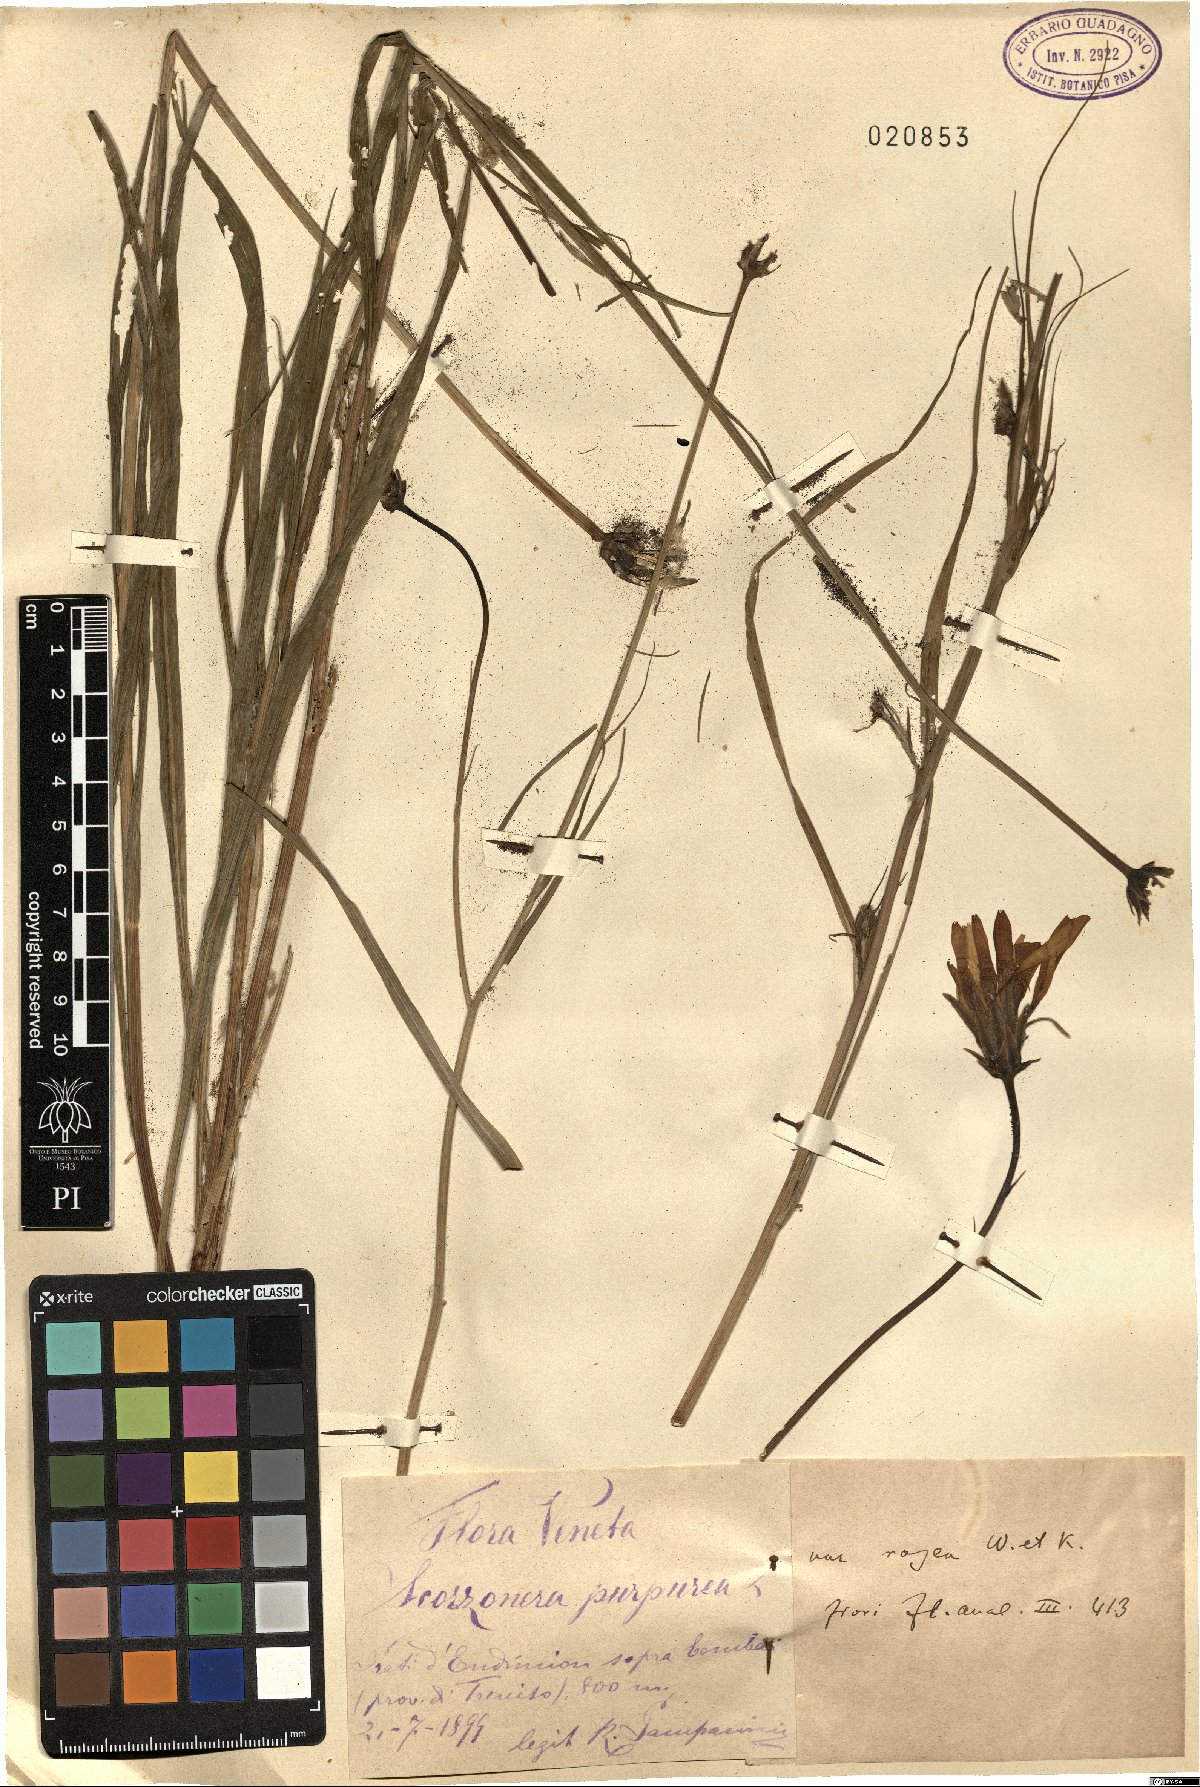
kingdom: Plantae
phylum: Tracheophyta
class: Magnoliopsida
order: Asterales
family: Asteraceae
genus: Scorzonera
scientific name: Scorzonera rosea
